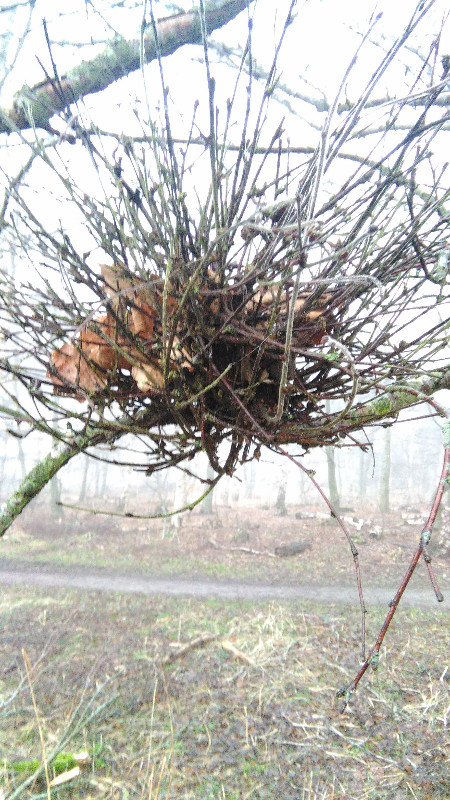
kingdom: Fungi
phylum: Ascomycota
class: Taphrinomycetes
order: Taphrinales
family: Taphrinaceae
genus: Taphrina
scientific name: Taphrina betulina
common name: hekse-sækdug
